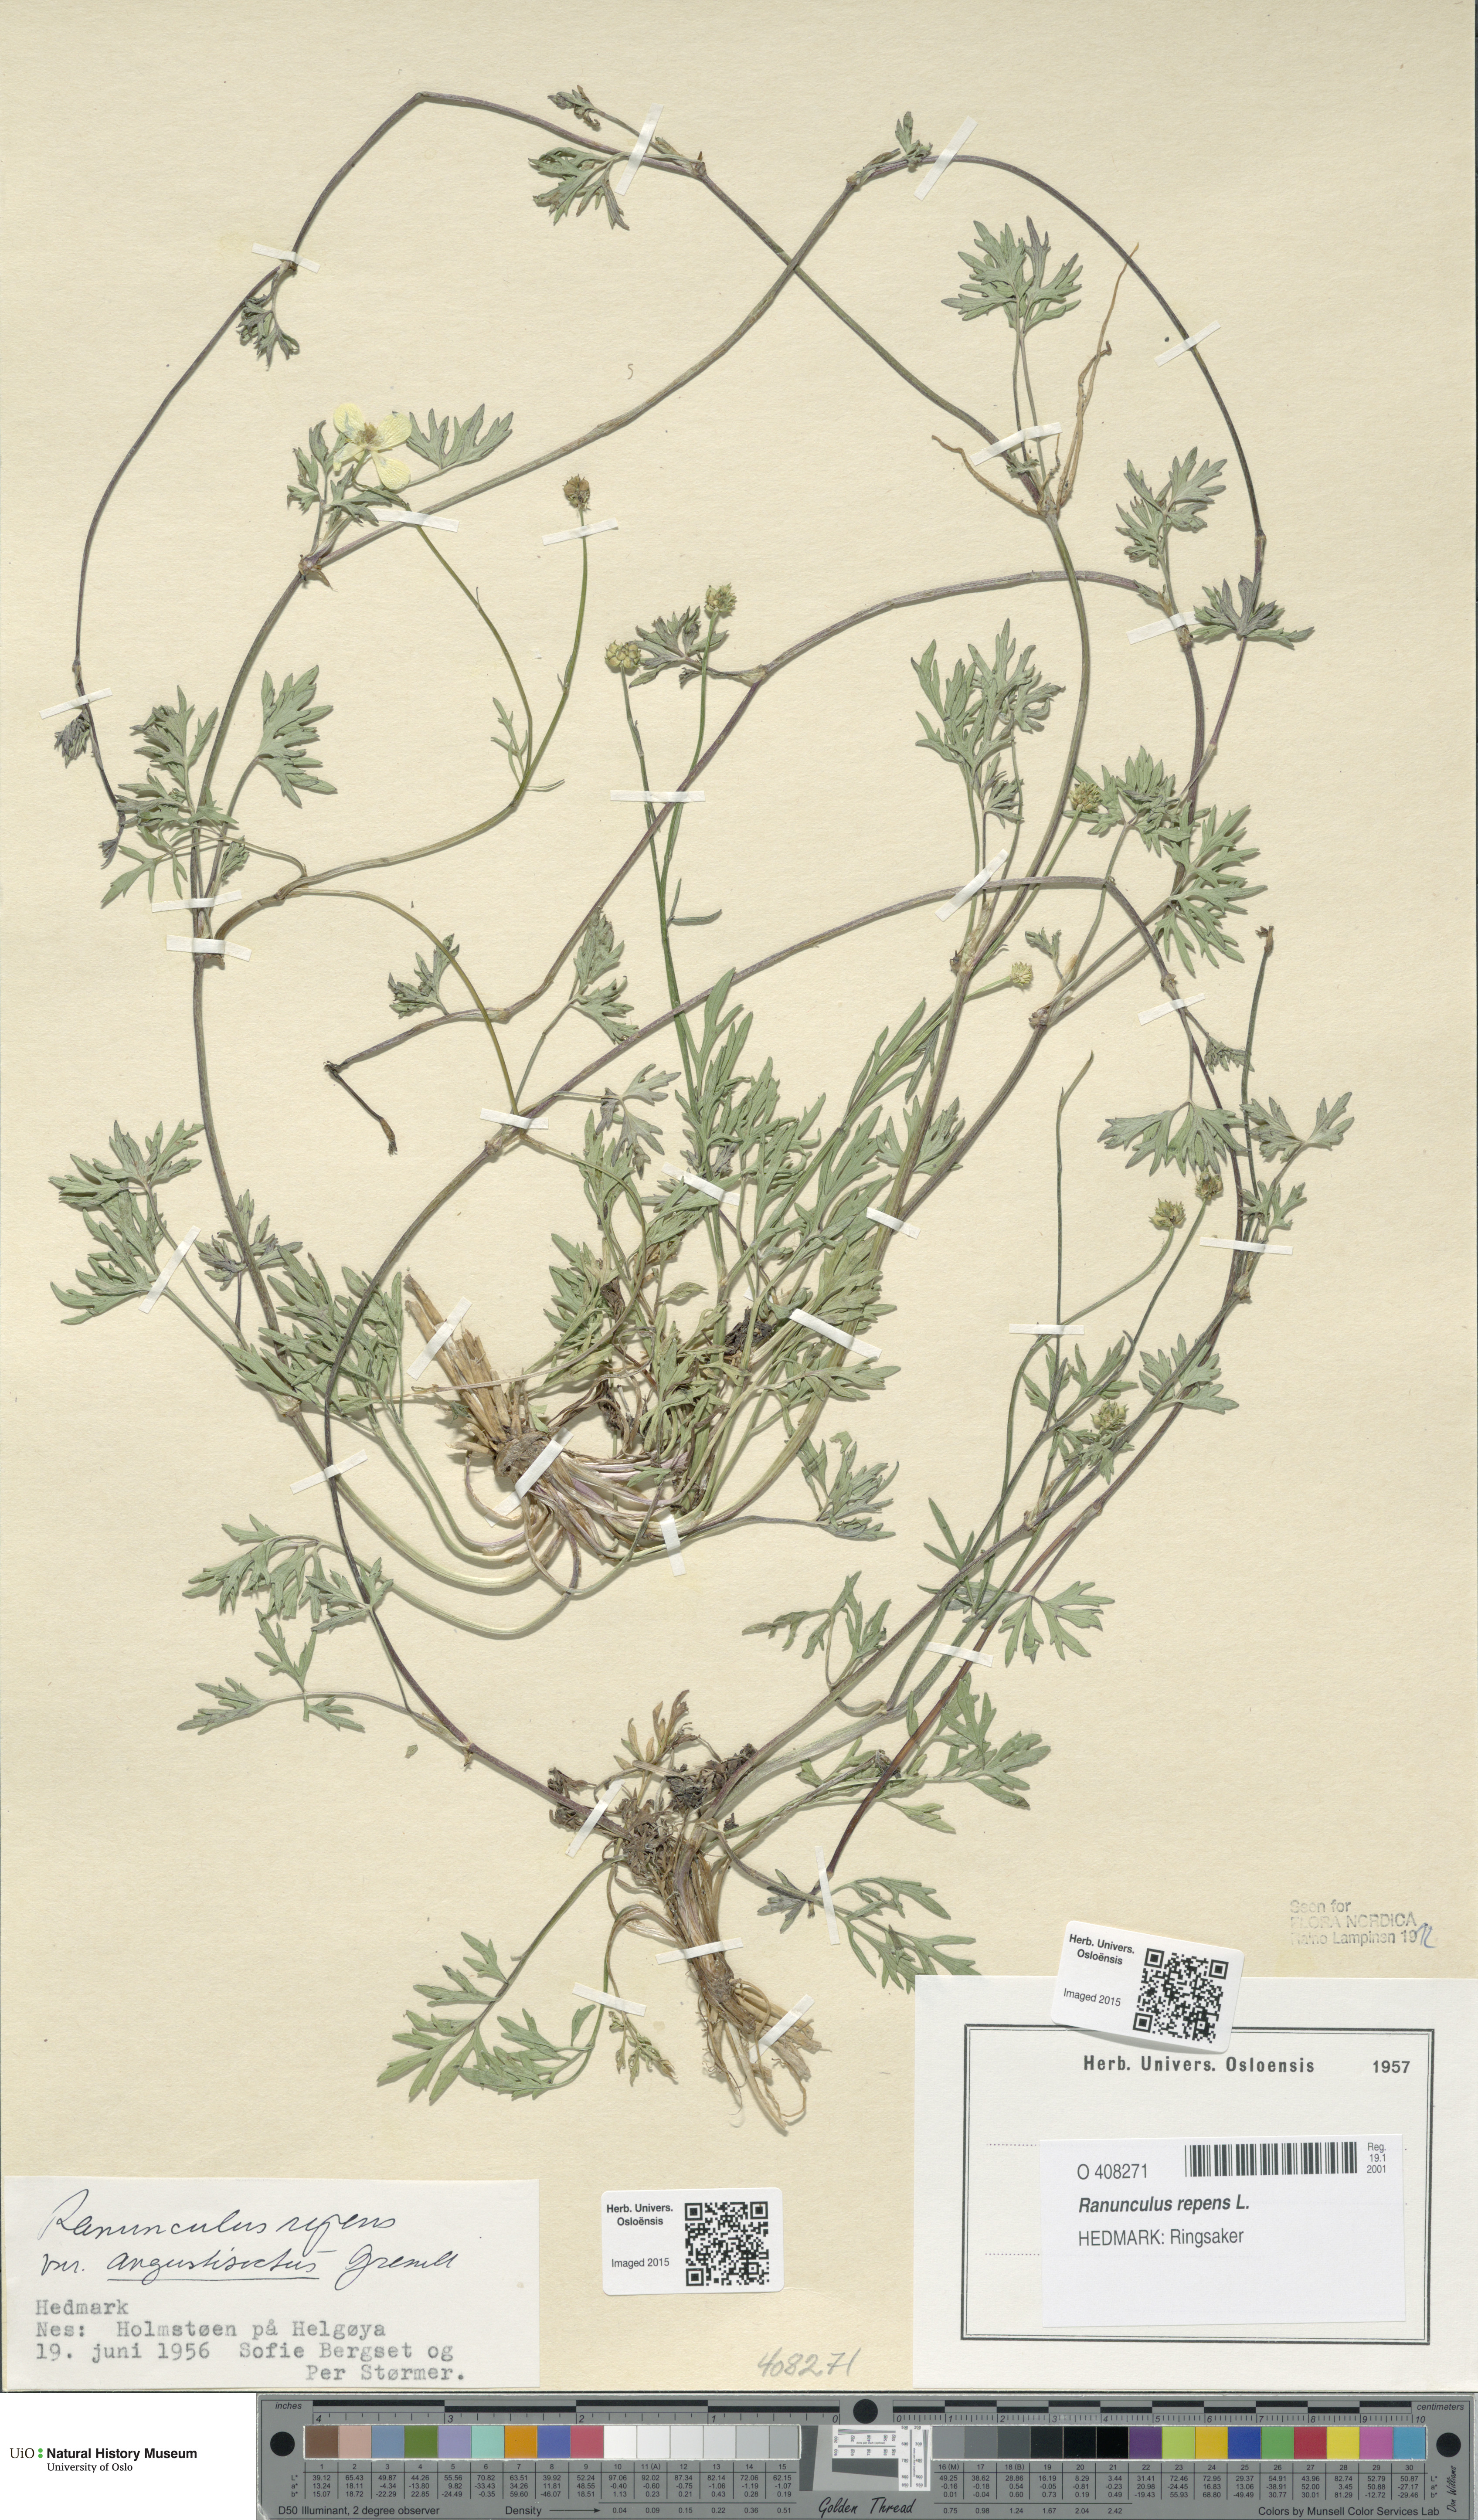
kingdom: Plantae
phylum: Tracheophyta
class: Magnoliopsida
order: Ranunculales
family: Ranunculaceae
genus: Ranunculus
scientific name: Ranunculus repens
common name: Creeping buttercup
